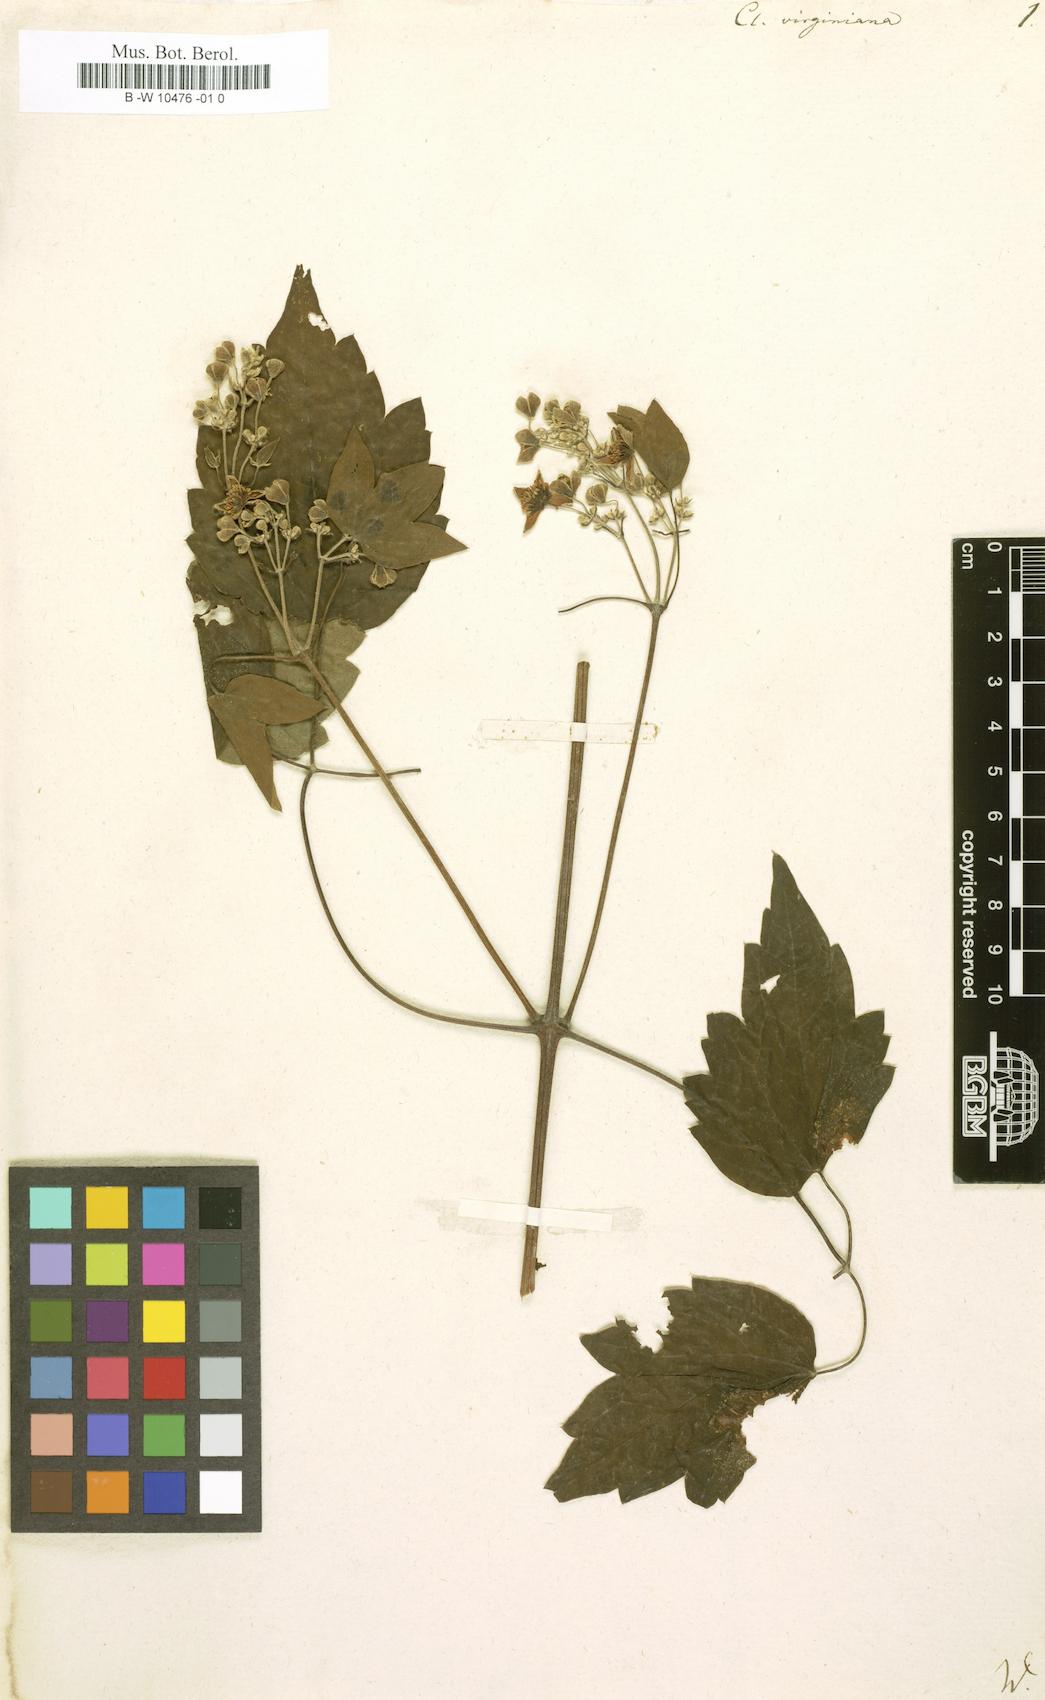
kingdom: Plantae
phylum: Tracheophyta
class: Magnoliopsida
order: Ranunculales
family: Ranunculaceae
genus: Clematis
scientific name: Clematis virginiana
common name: Virgin's-bower
